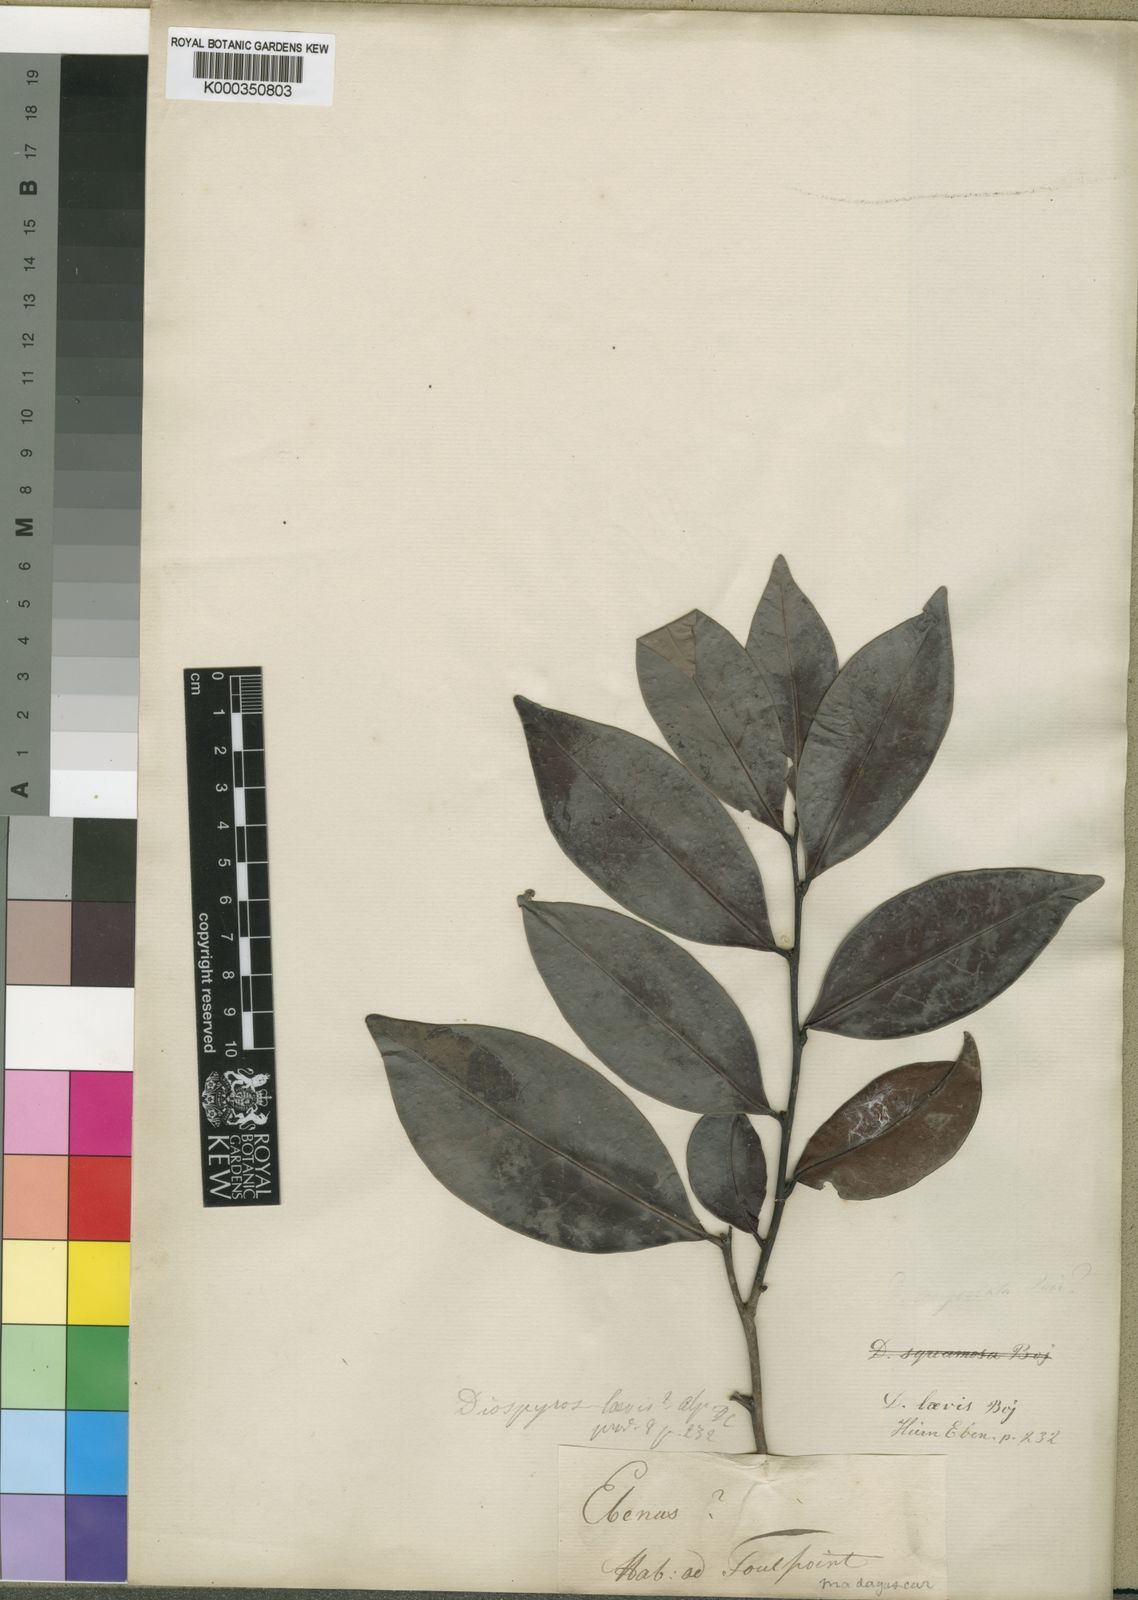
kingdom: Plantae
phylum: Tracheophyta
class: Magnoliopsida
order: Ericales
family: Ebenaceae
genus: Diospyros
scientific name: Diospyros squamosa
